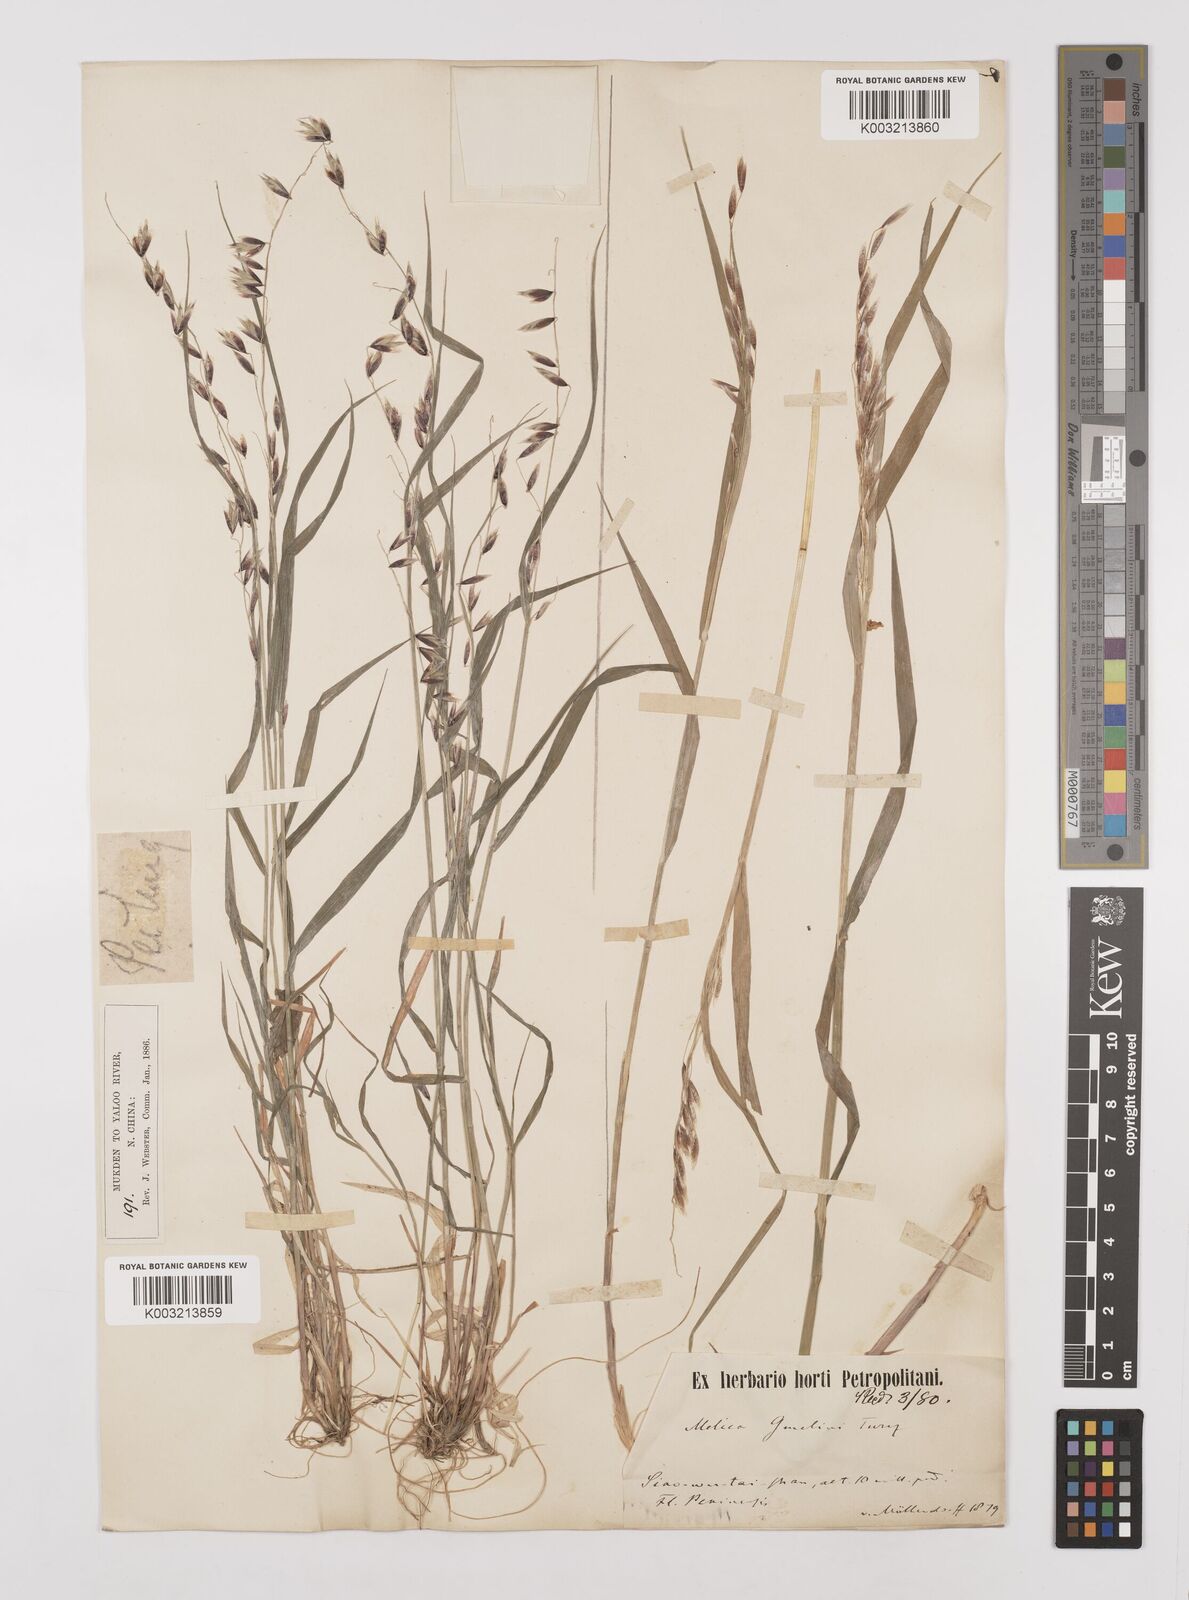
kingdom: Plantae
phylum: Tracheophyta
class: Liliopsida
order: Poales
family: Poaceae
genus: Melica
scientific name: Melica turczaninowiana
